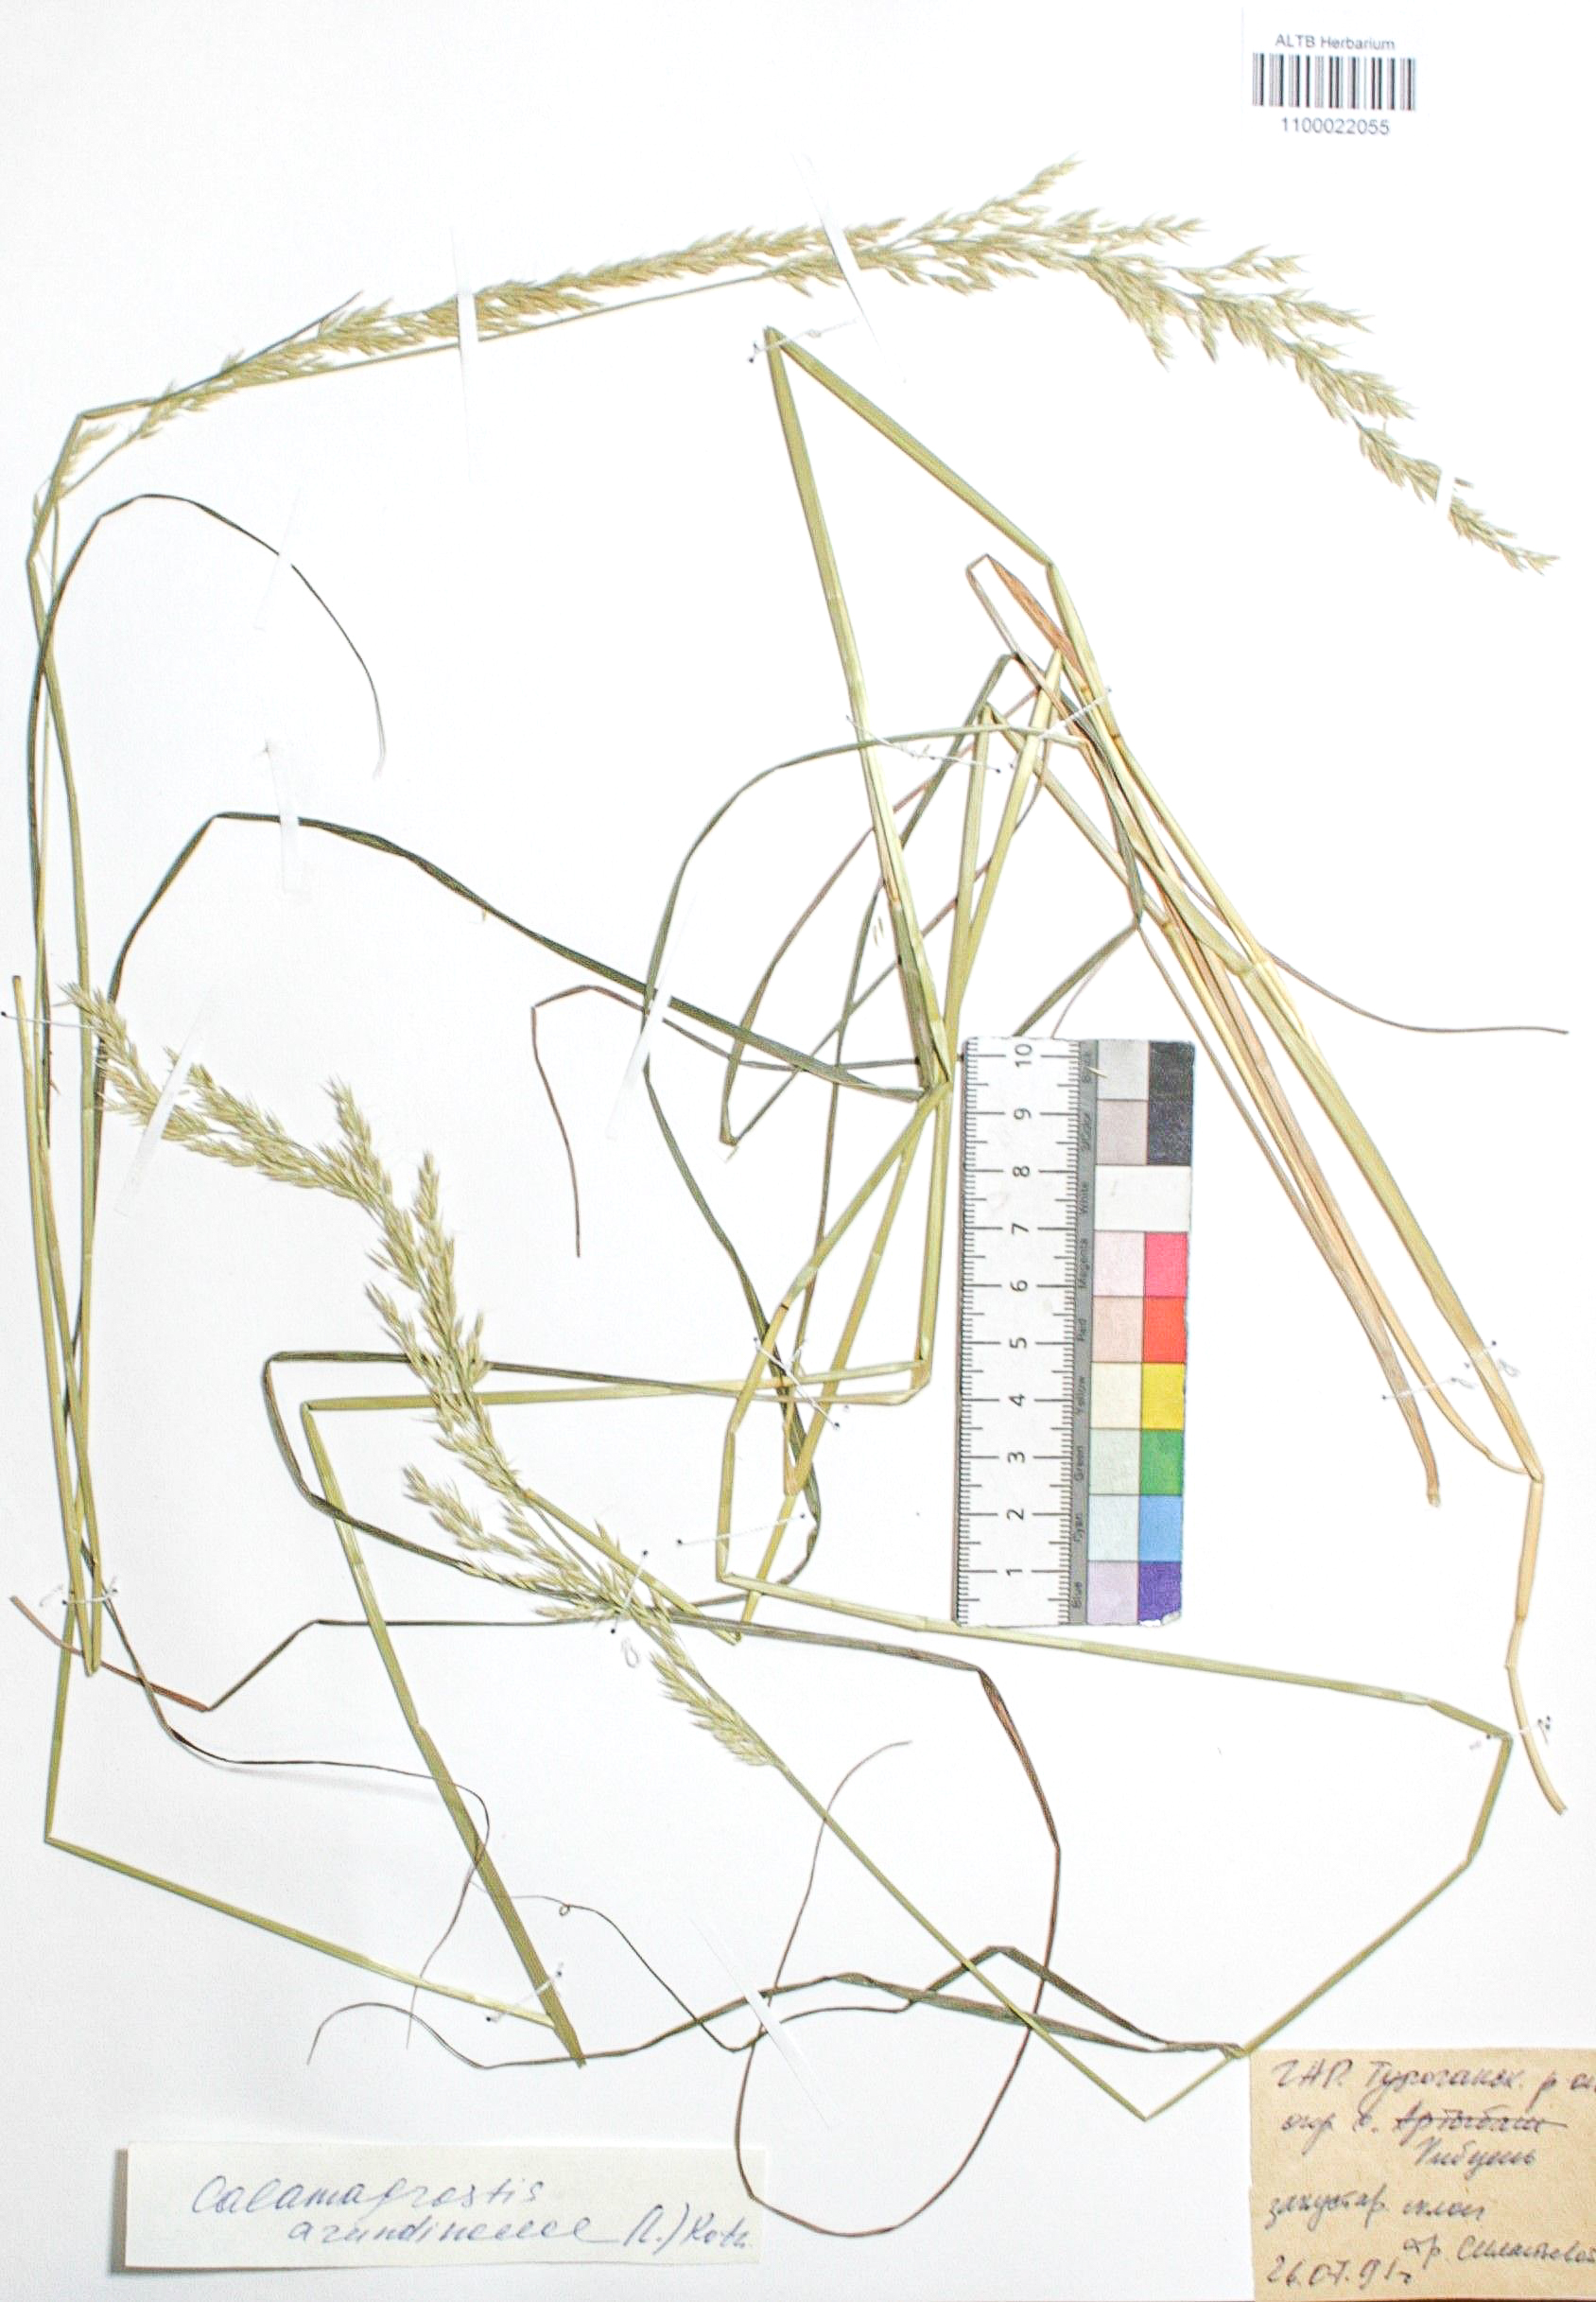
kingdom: Plantae
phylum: Tracheophyta
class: Liliopsida
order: Poales
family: Poaceae
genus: Calamagrostis
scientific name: Calamagrostis arundinacea
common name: Metskastik
